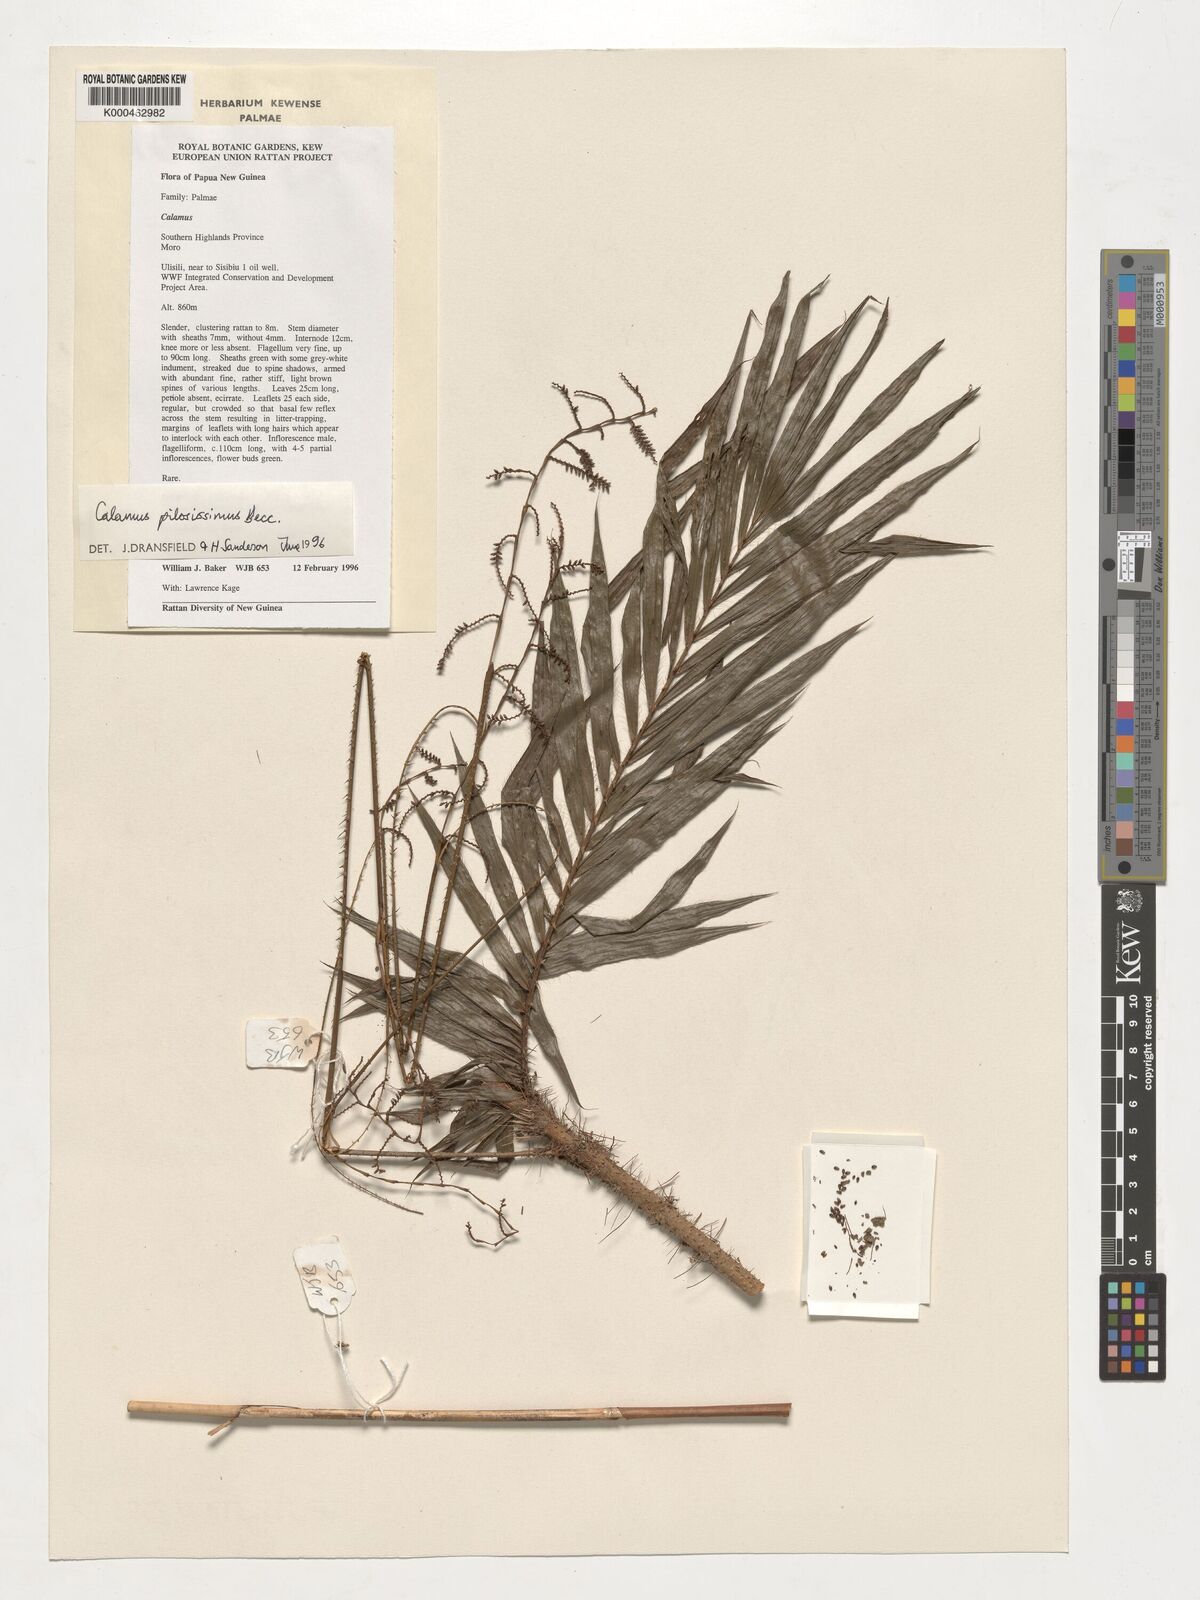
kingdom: Plantae
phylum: Tracheophyta
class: Liliopsida
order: Arecales
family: Arecaceae
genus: Calamus
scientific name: Calamus pilosissimus
